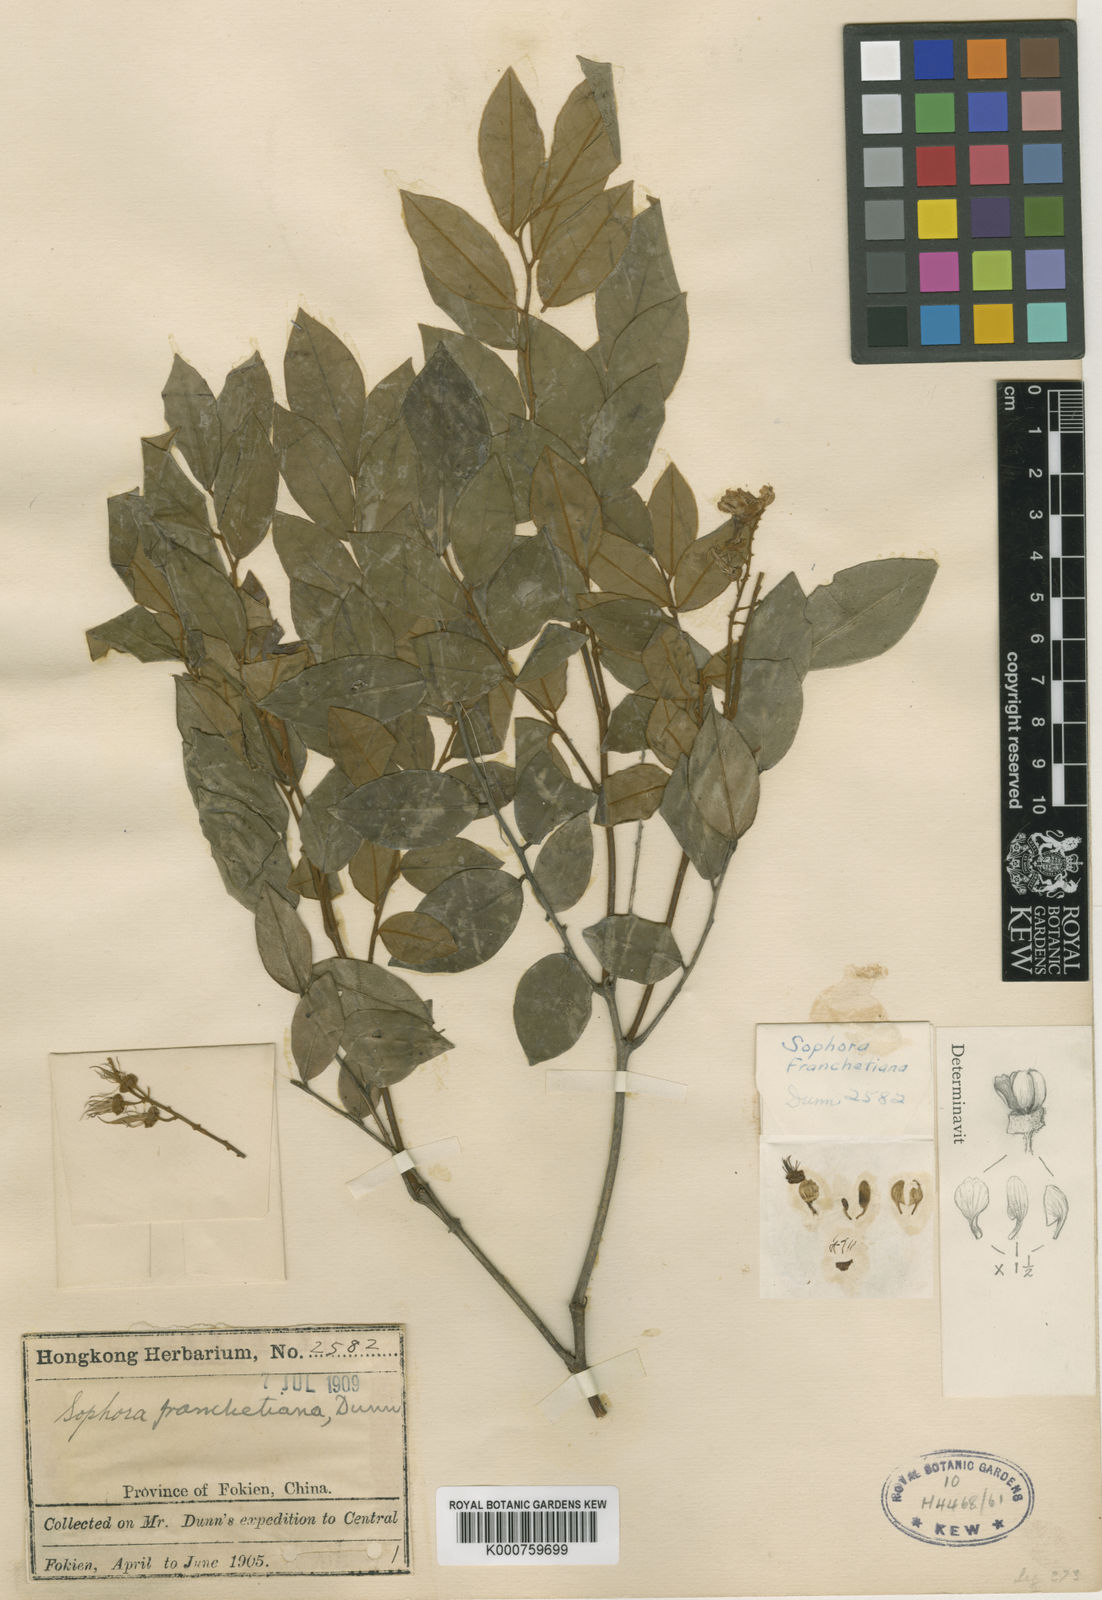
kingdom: Plantae
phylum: Tracheophyta
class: Magnoliopsida
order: Fabales
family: Fabaceae
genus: Sophora
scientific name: Sophora franchetiana
